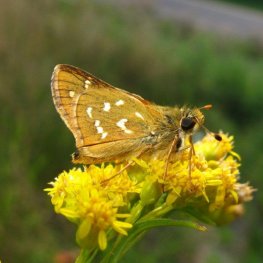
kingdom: Animalia
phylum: Arthropoda
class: Insecta
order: Lepidoptera
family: Hesperiidae
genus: Hesperia
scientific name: Hesperia comma
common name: Common Branded Skipper
